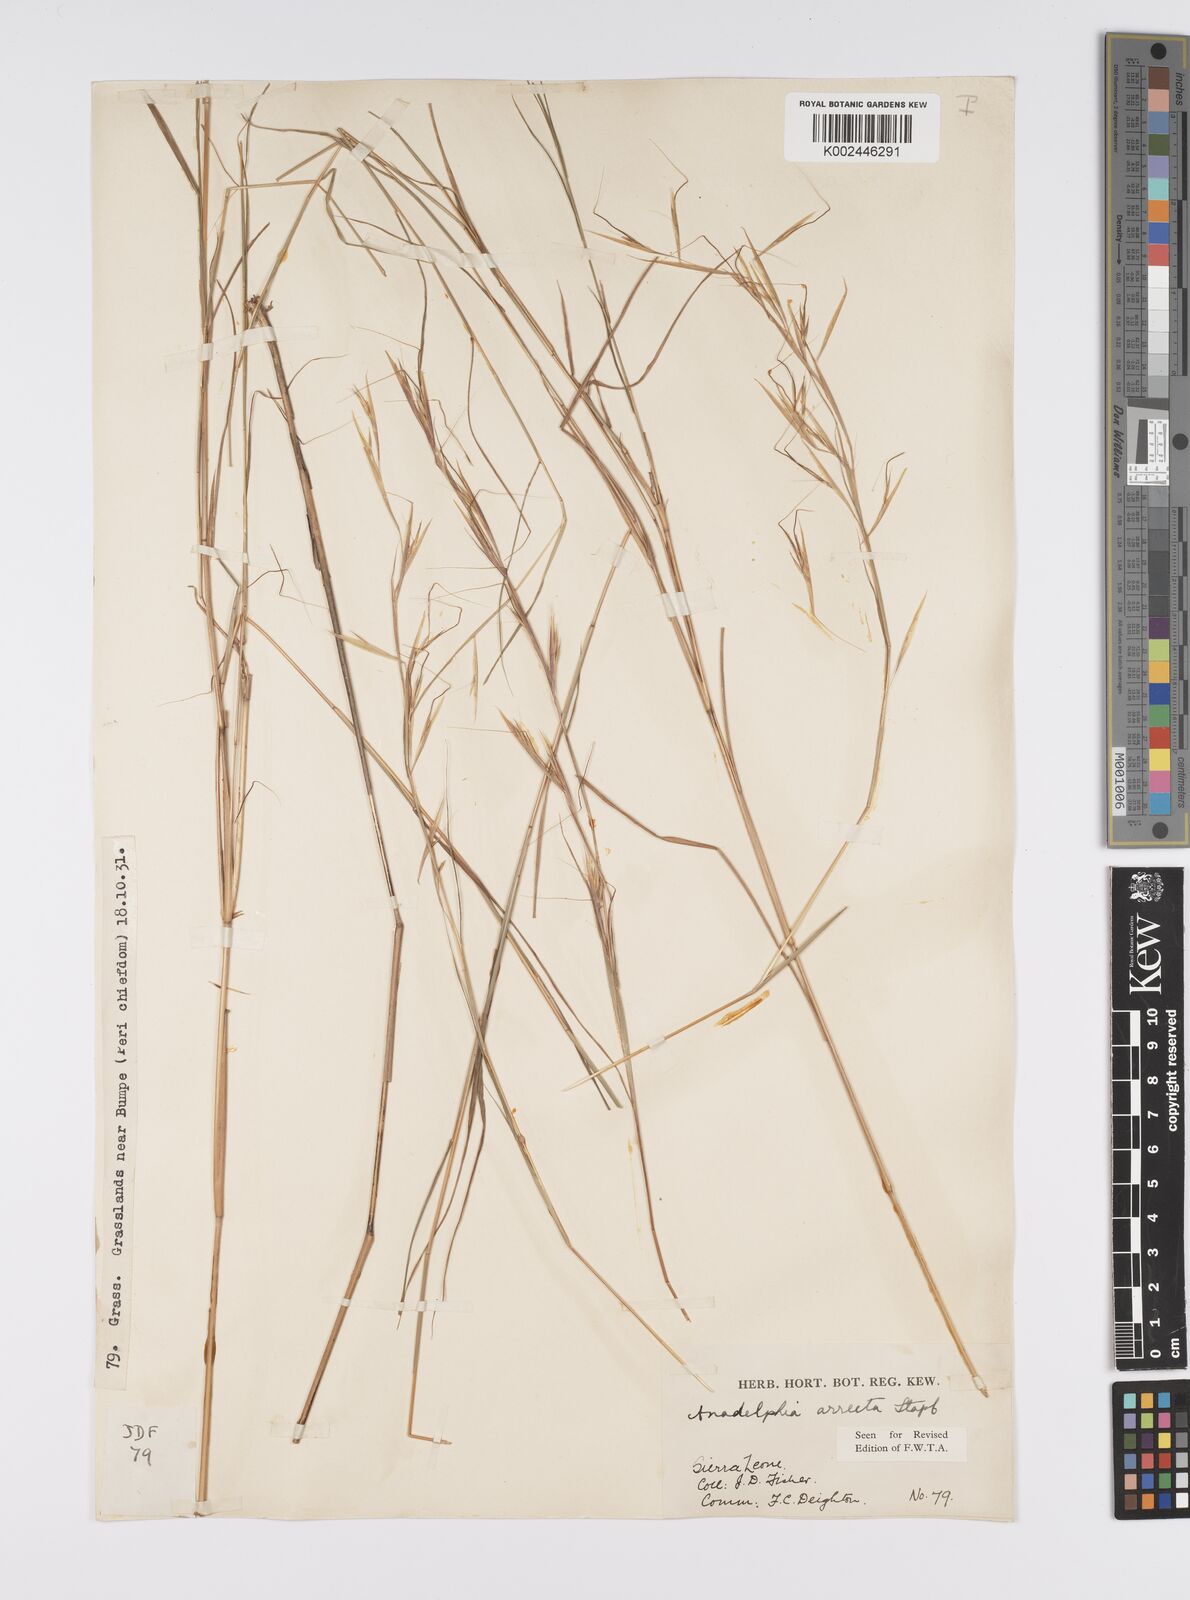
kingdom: Plantae
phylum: Tracheophyta
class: Liliopsida
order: Poales
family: Poaceae
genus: Anadelphia
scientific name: Anadelphia afzeliana
